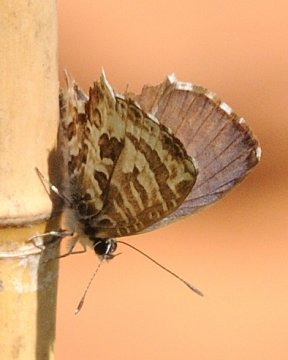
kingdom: Animalia
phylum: Arthropoda
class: Insecta
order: Lepidoptera
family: Lycaenidae
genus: Cacyreus
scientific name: Cacyreus lingeus
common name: Common Bush Blue
